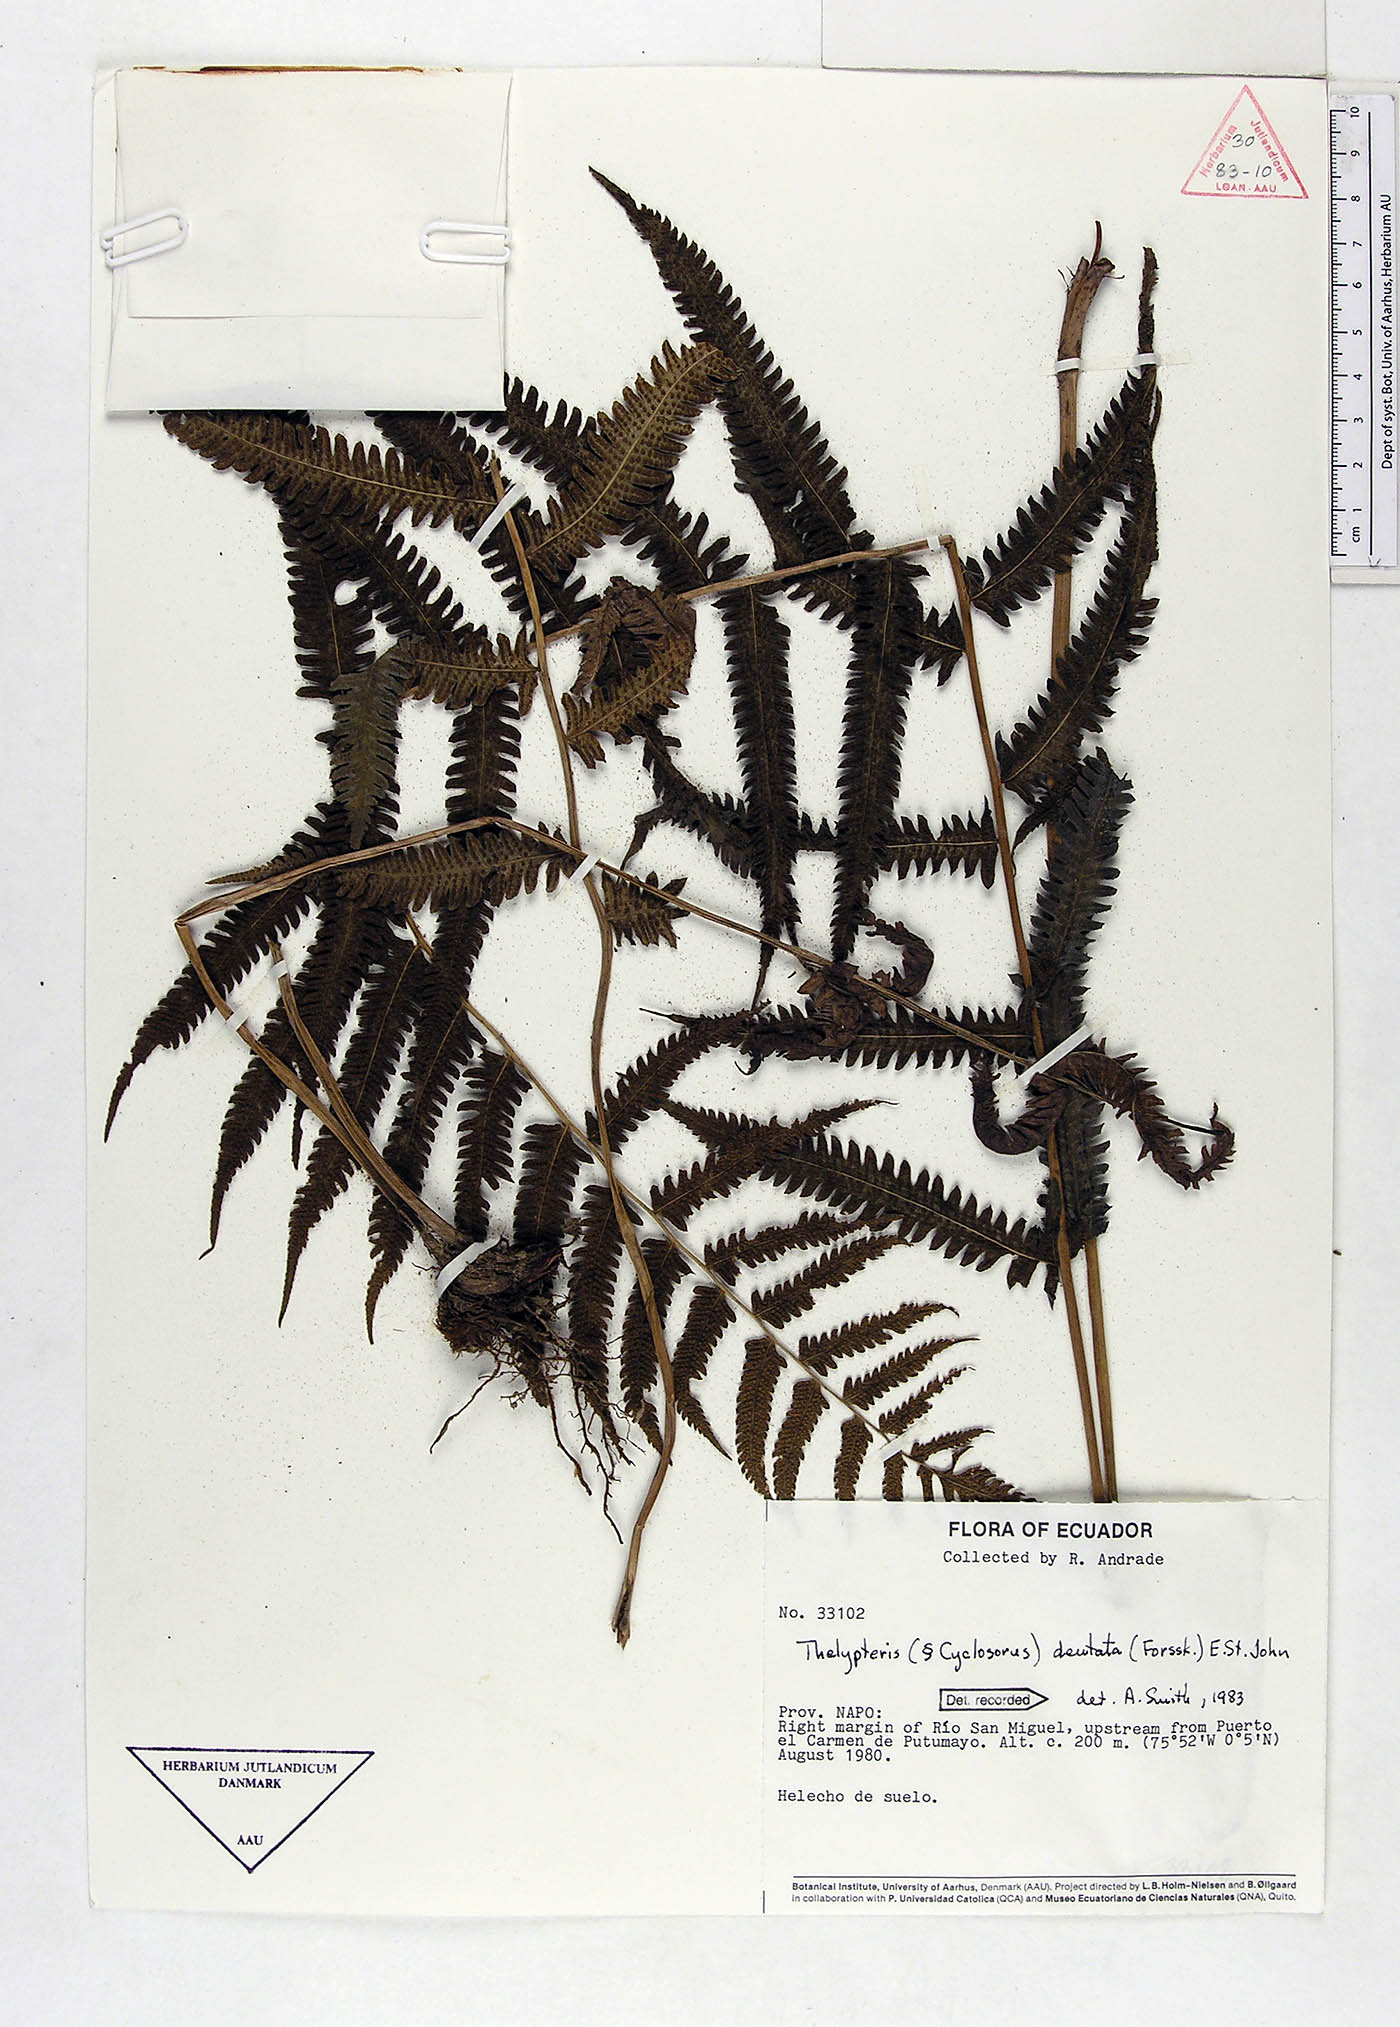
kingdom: Plantae
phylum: Tracheophyta
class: Polypodiopsida
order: Polypodiales
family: Thelypteridaceae
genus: Christella
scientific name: Christella dentata
